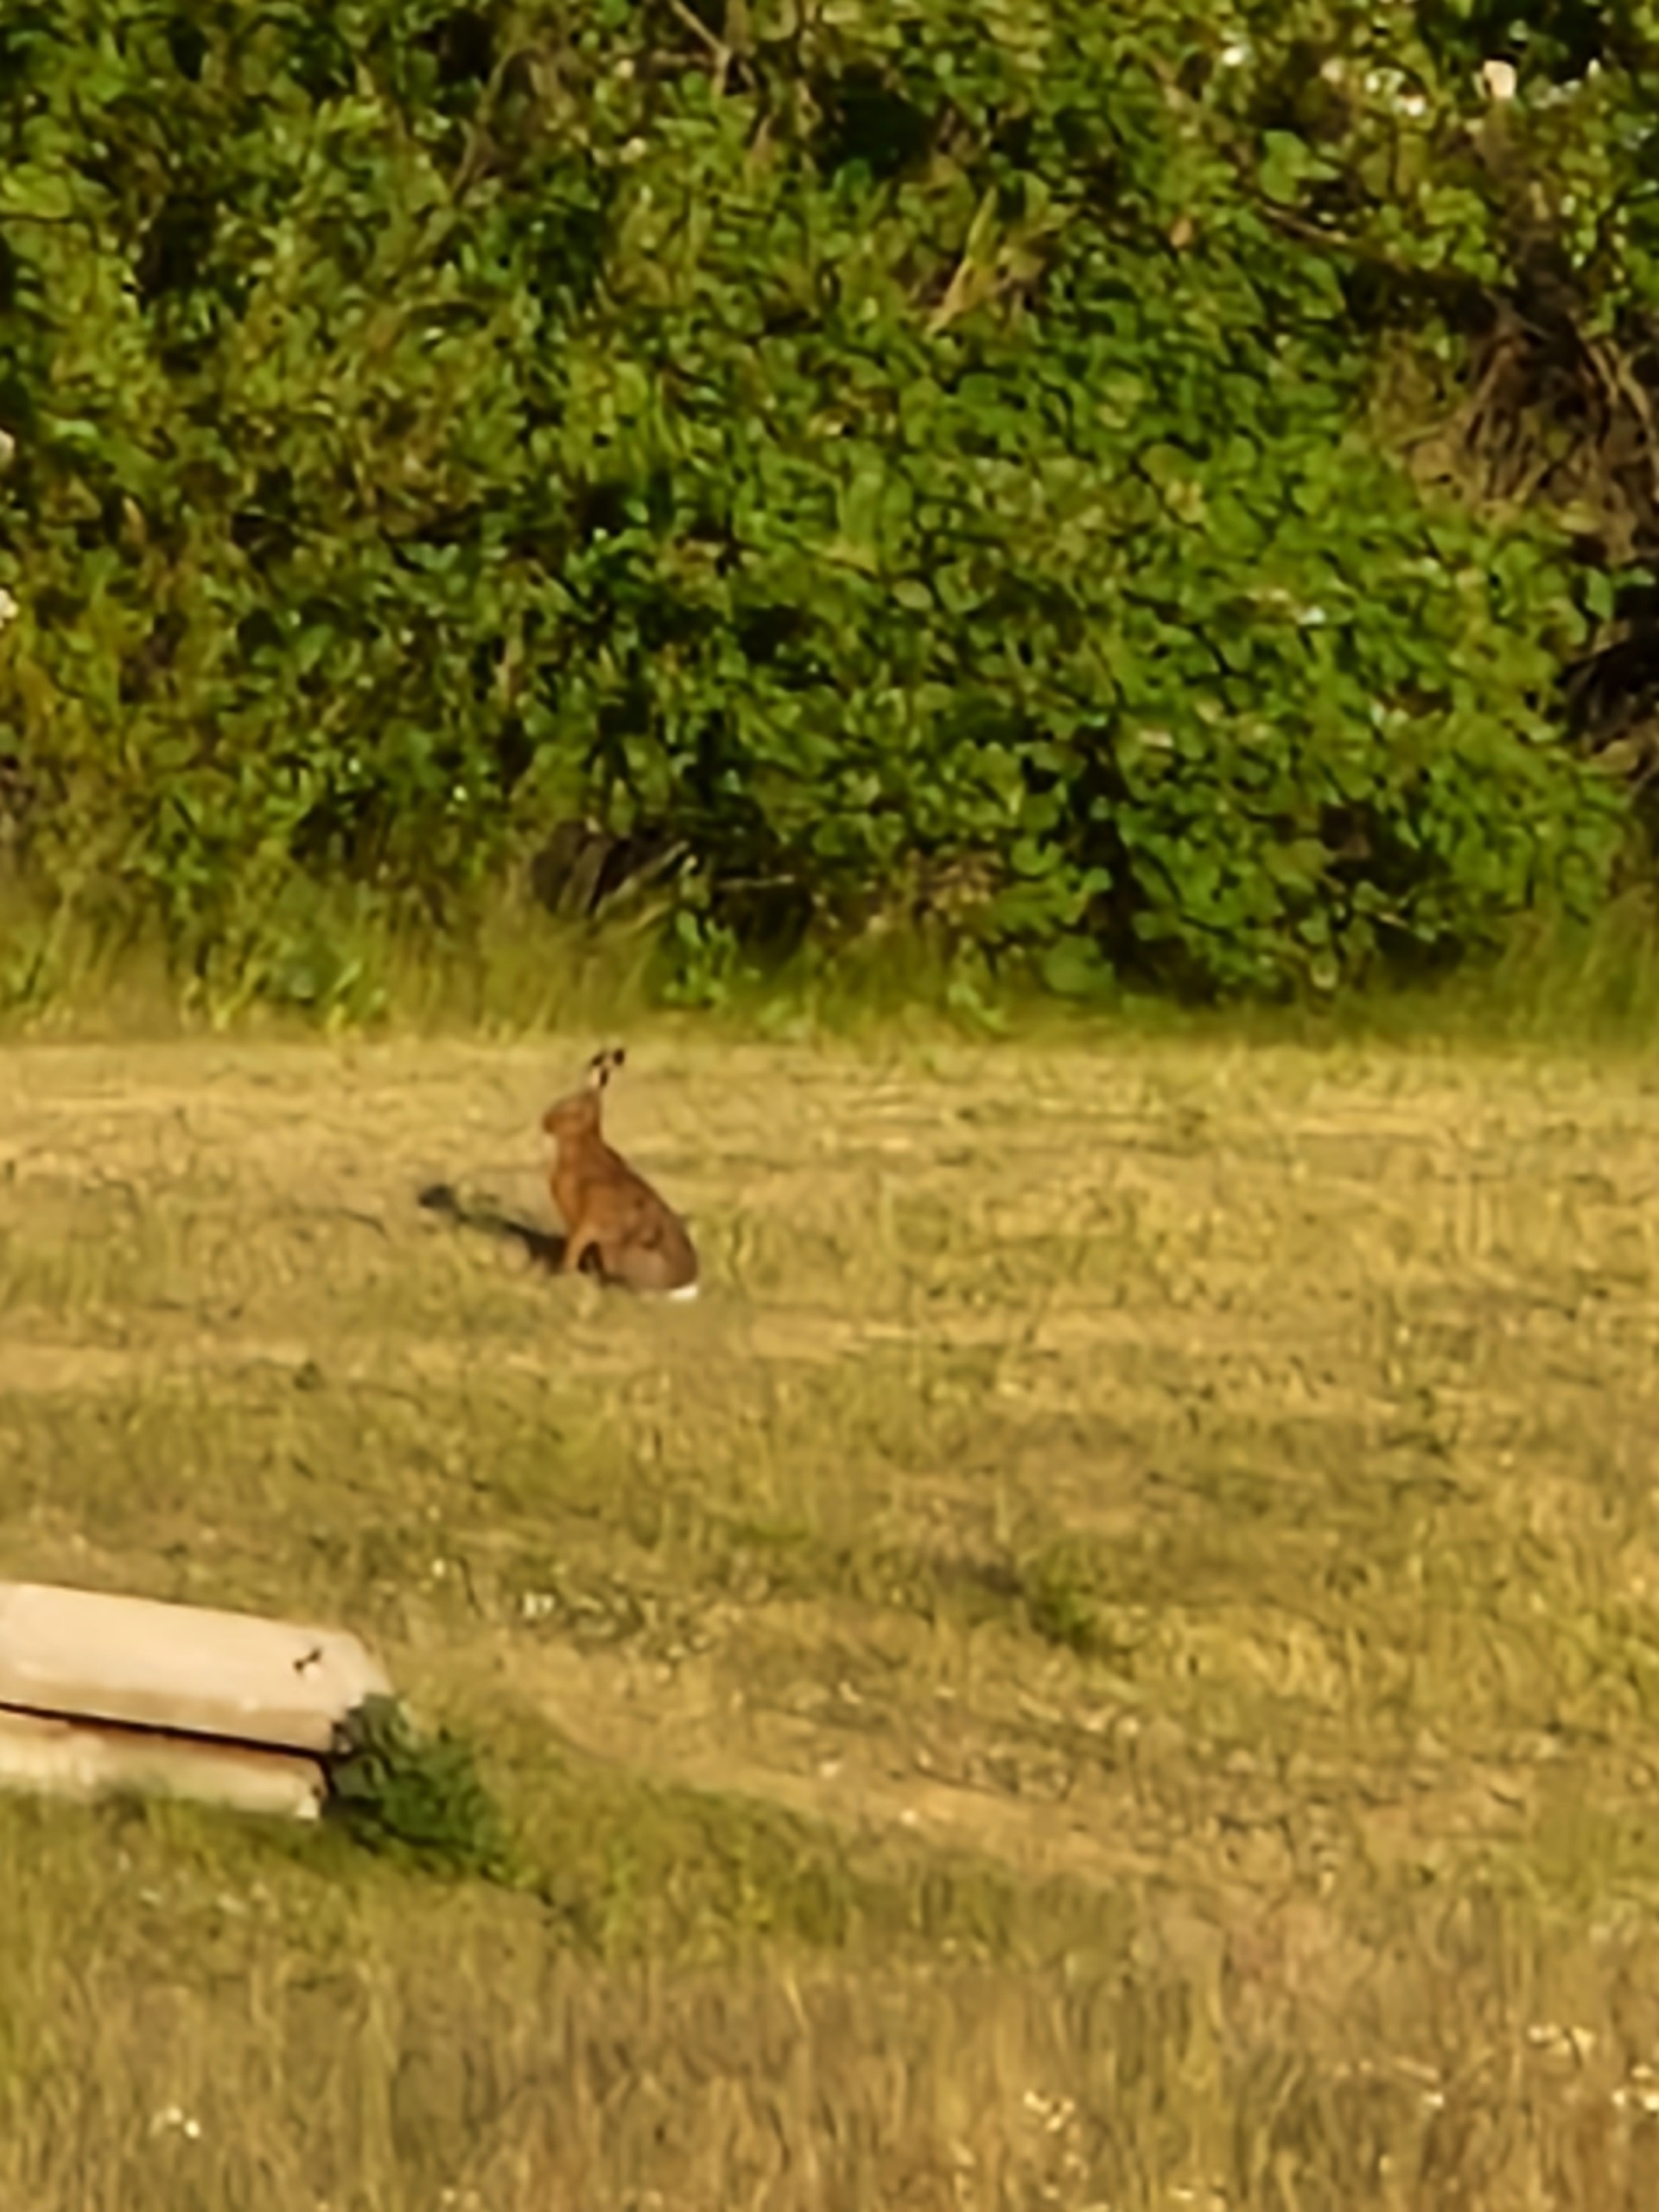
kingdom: Animalia
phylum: Chordata
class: Mammalia
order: Lagomorpha
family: Leporidae
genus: Lepus
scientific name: Lepus europaeus
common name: Hare
